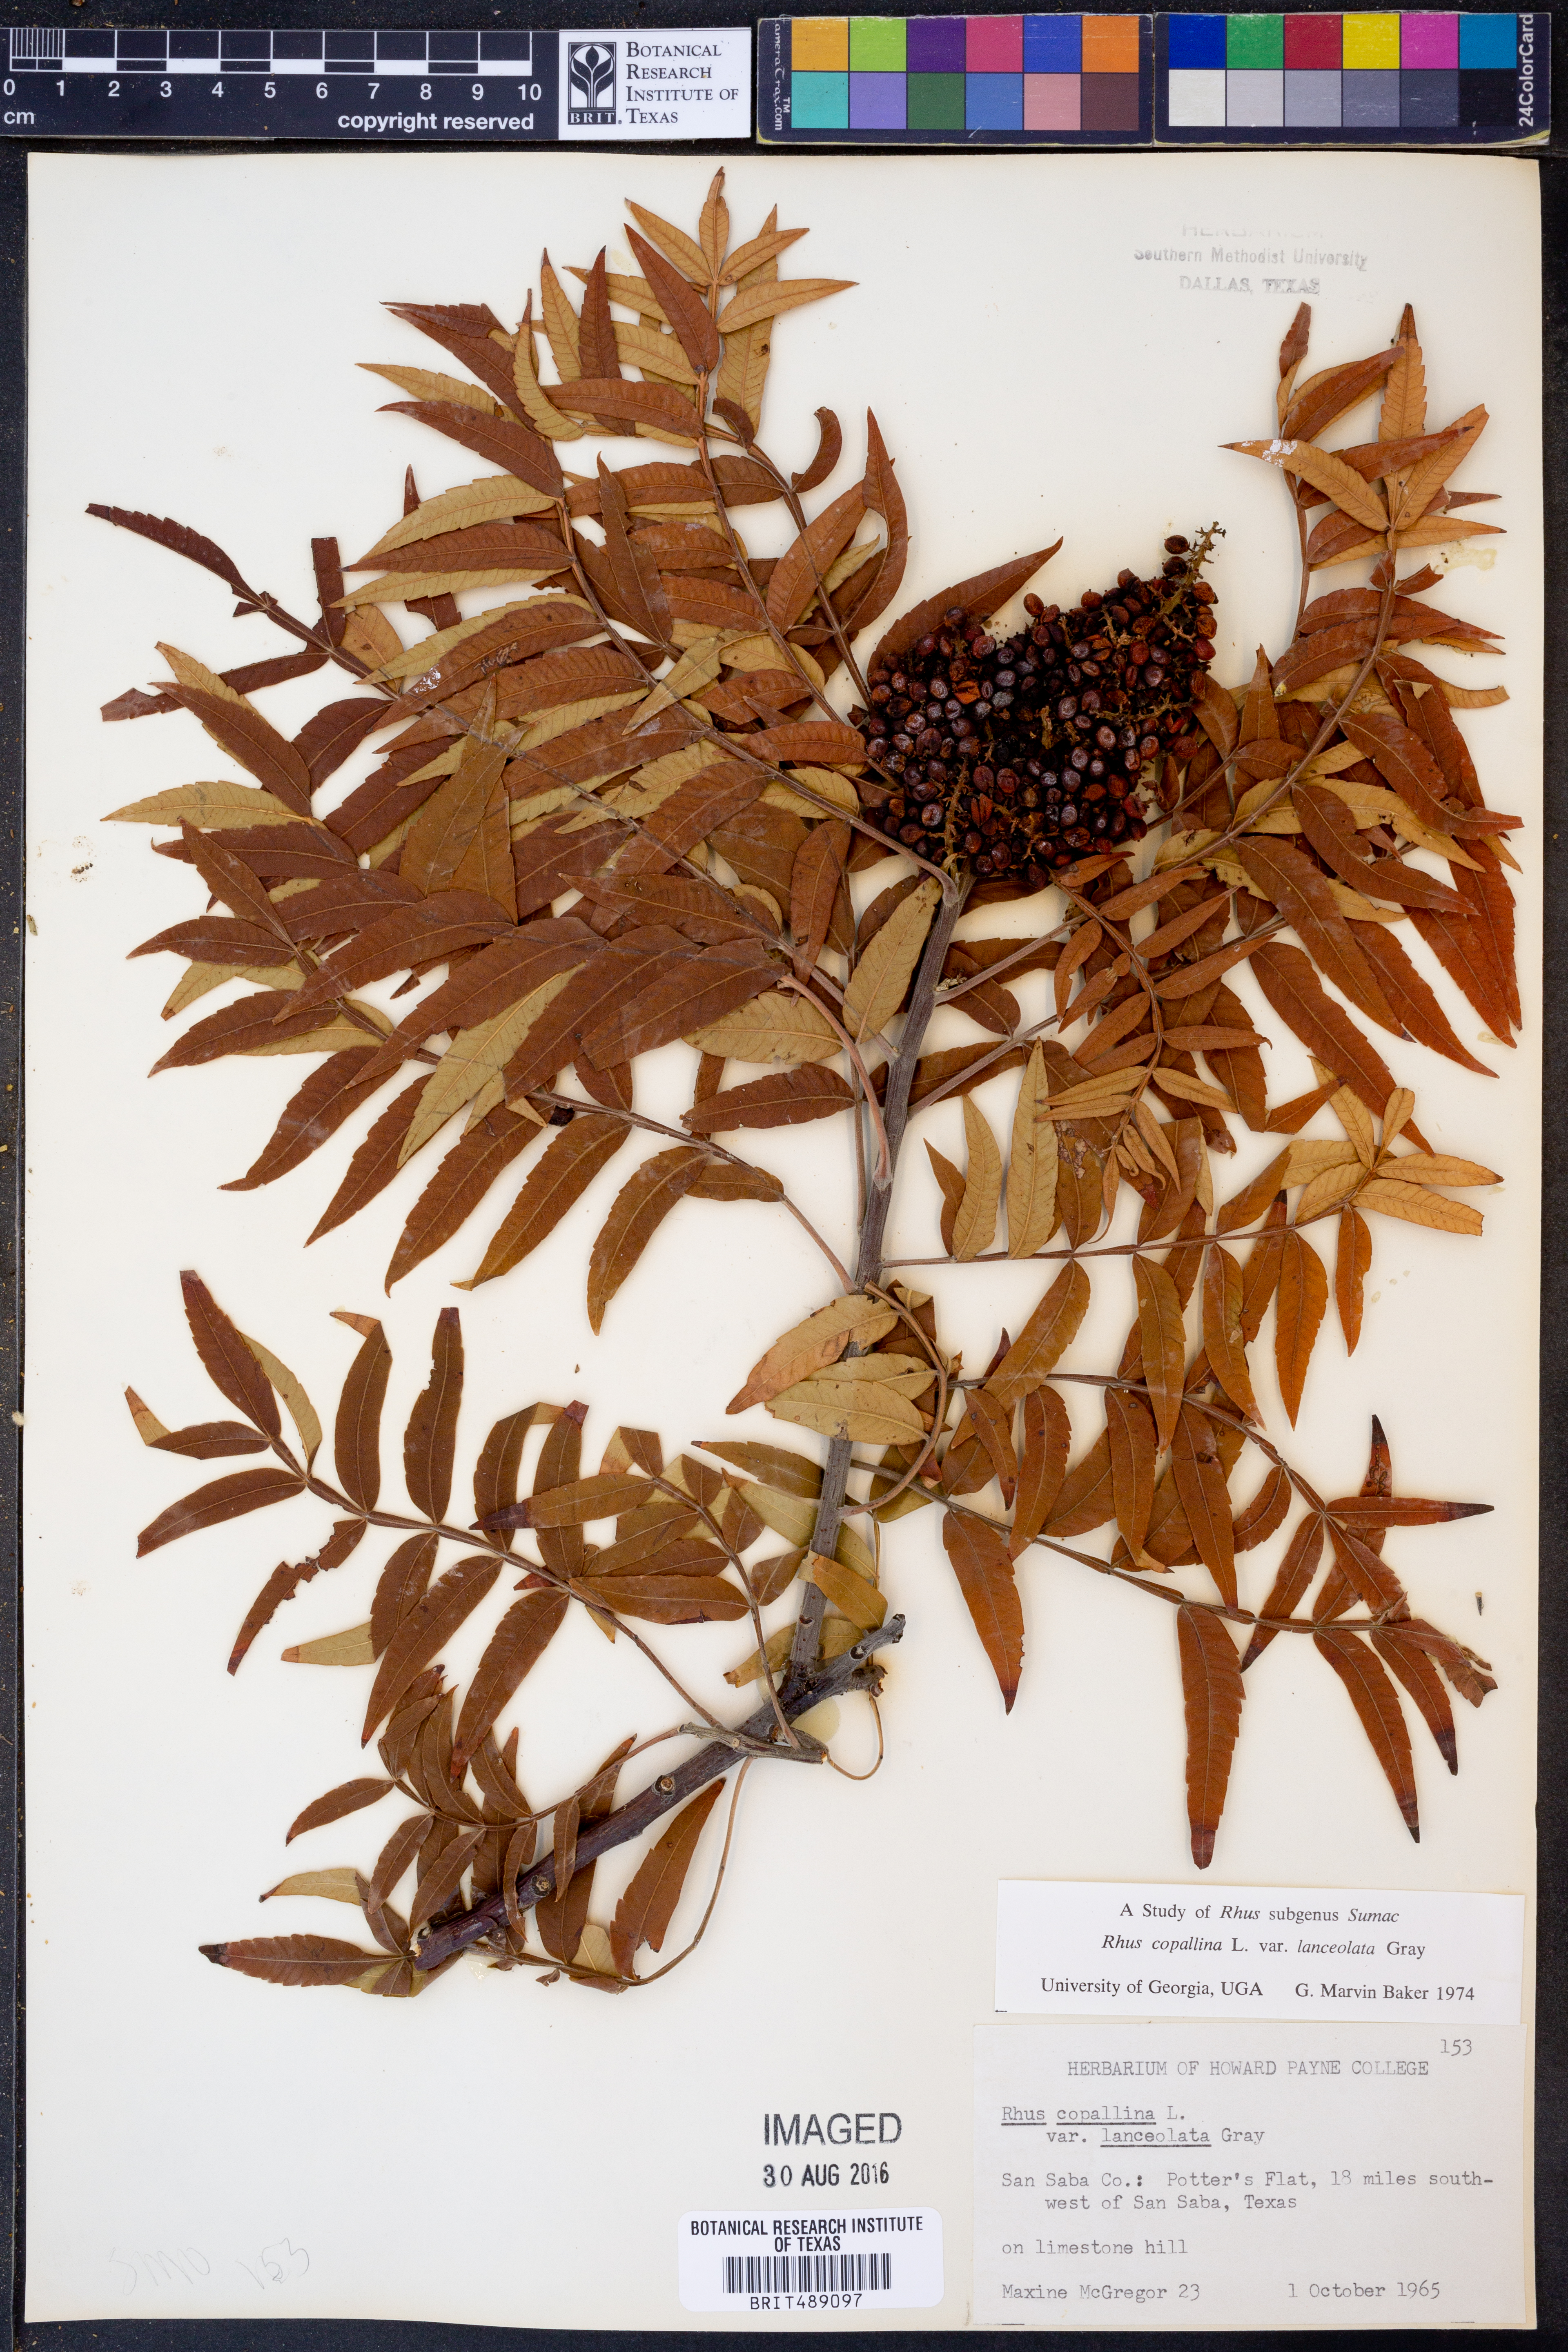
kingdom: Plantae
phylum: Tracheophyta
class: Magnoliopsida
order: Sapindales
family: Anacardiaceae
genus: Rhus
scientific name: Rhus lanceolata
